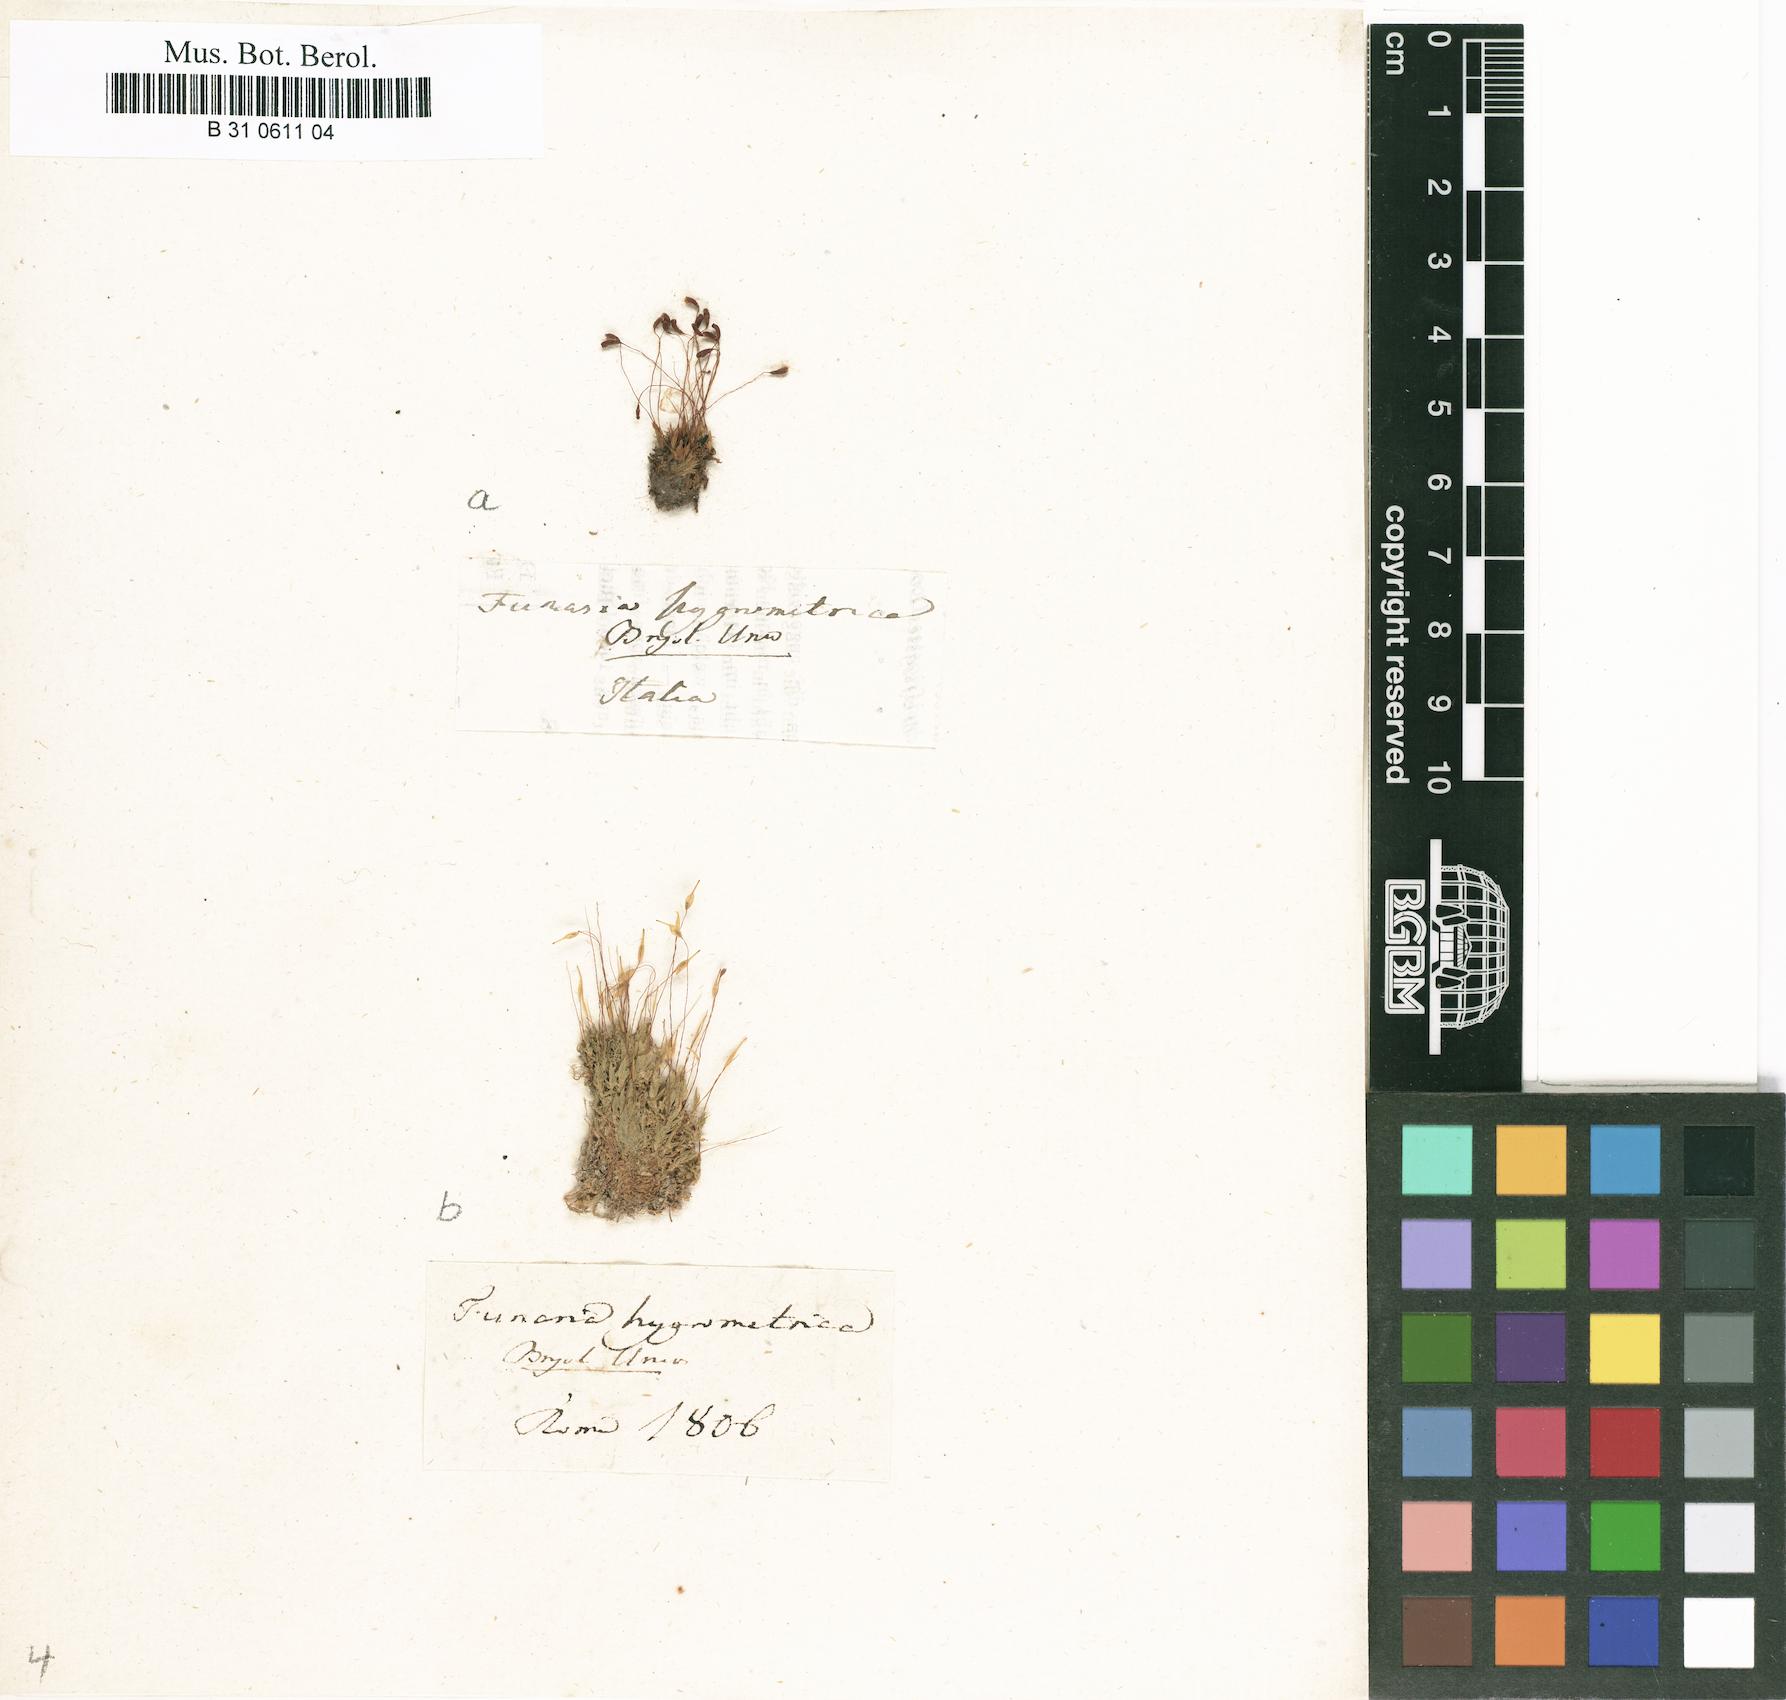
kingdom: Plantae
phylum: Bryophyta
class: Bryopsida
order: Funariales
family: Funariaceae
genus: Funaria
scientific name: Funaria hygrometrica
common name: Common cord moss
